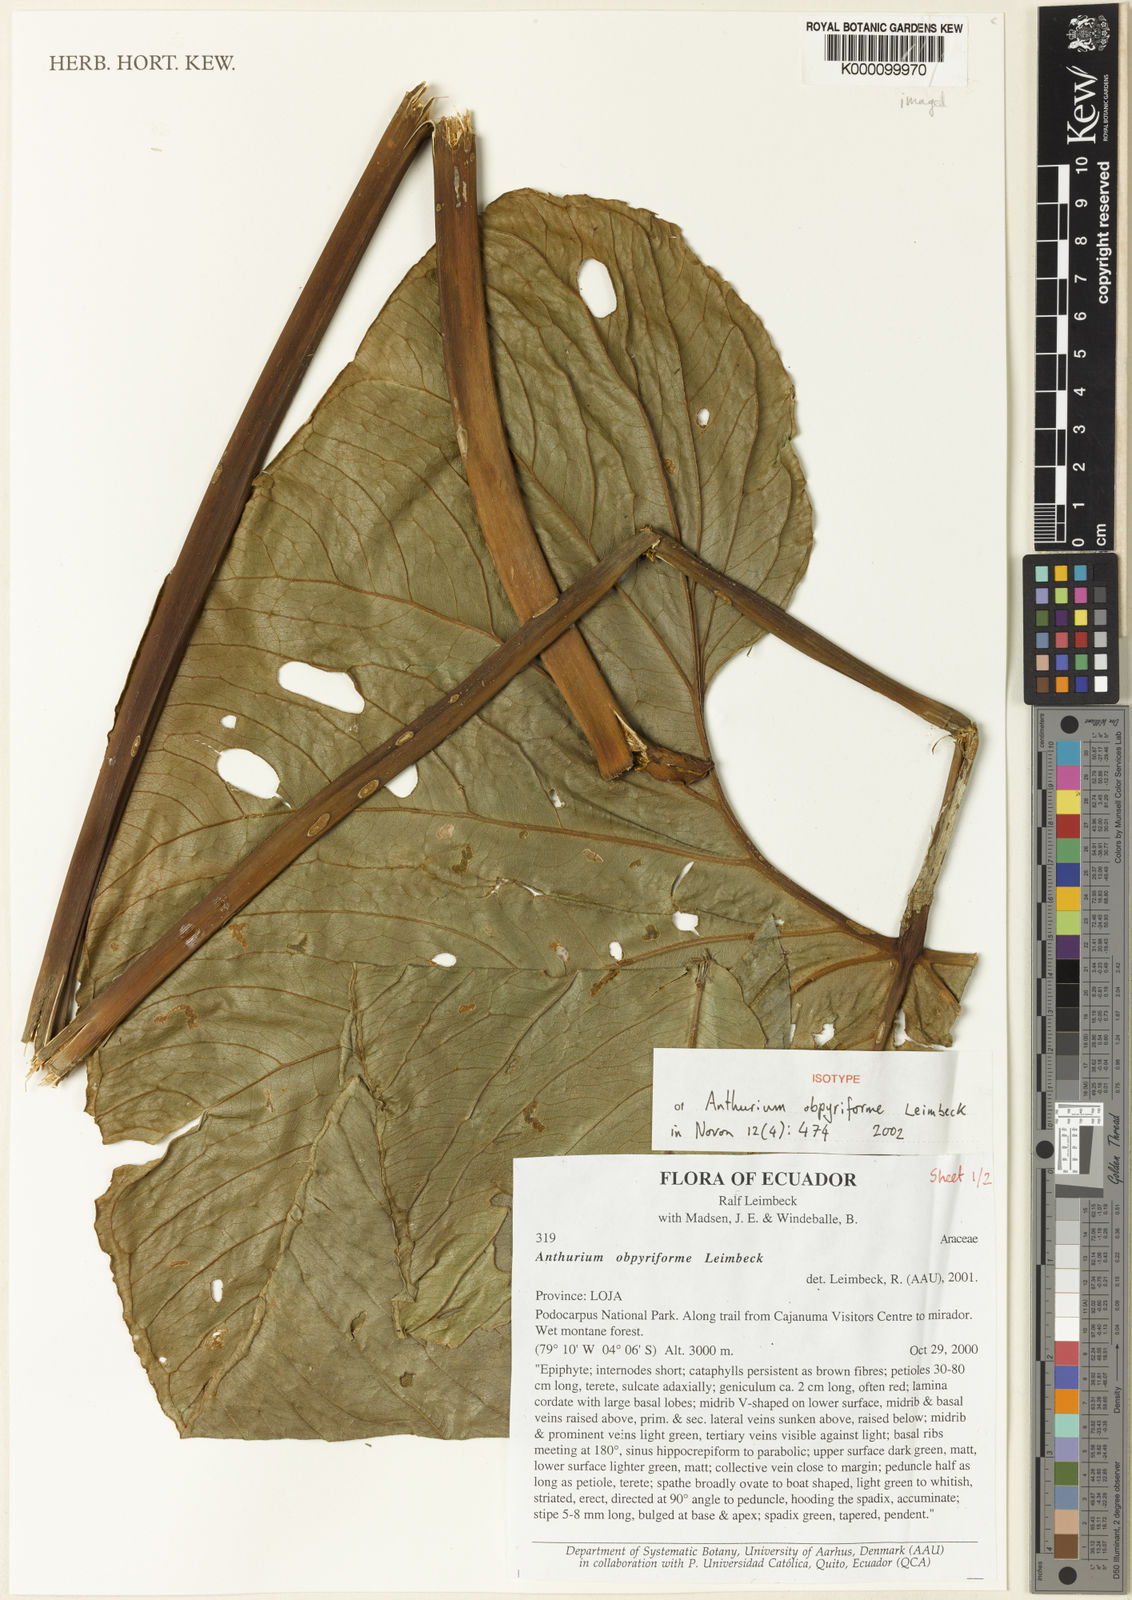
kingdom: Plantae
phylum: Tracheophyta
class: Liliopsida
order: Alismatales
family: Araceae
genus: Anthurium
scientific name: Anthurium obpyriforme
